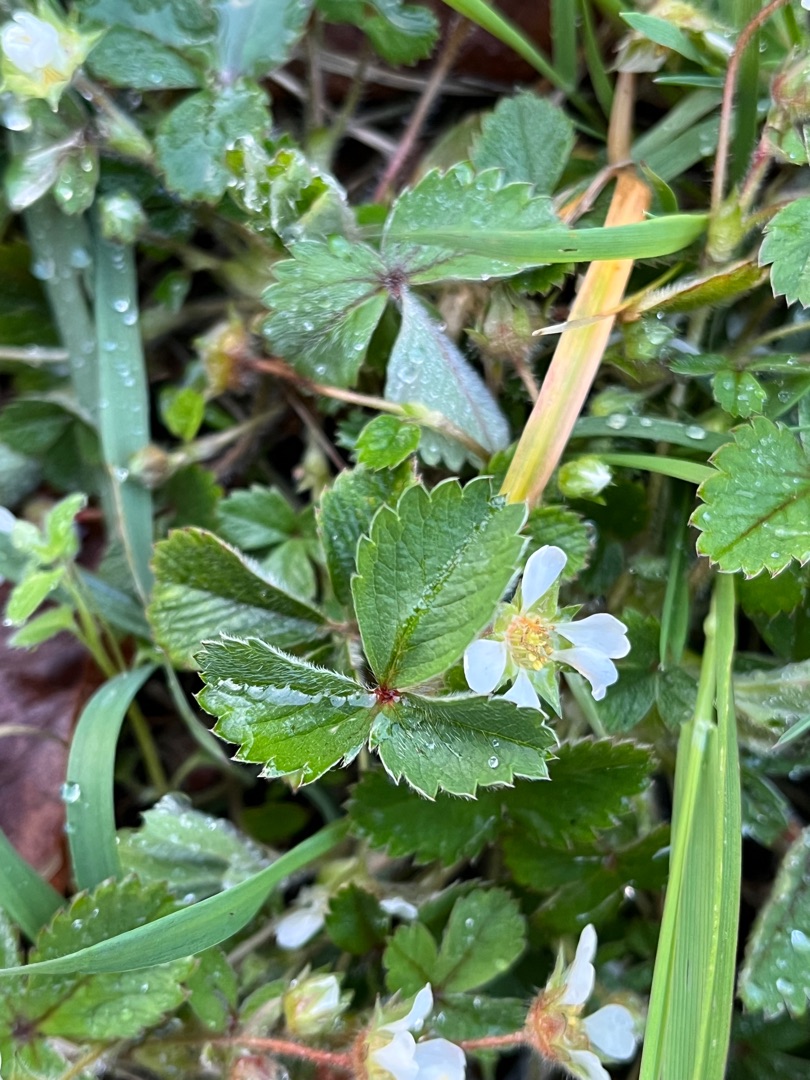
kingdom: Plantae
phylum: Tracheophyta
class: Magnoliopsida
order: Rosales
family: Rosaceae
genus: Potentilla
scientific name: Potentilla sterilis
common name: Jordbær-potentil
